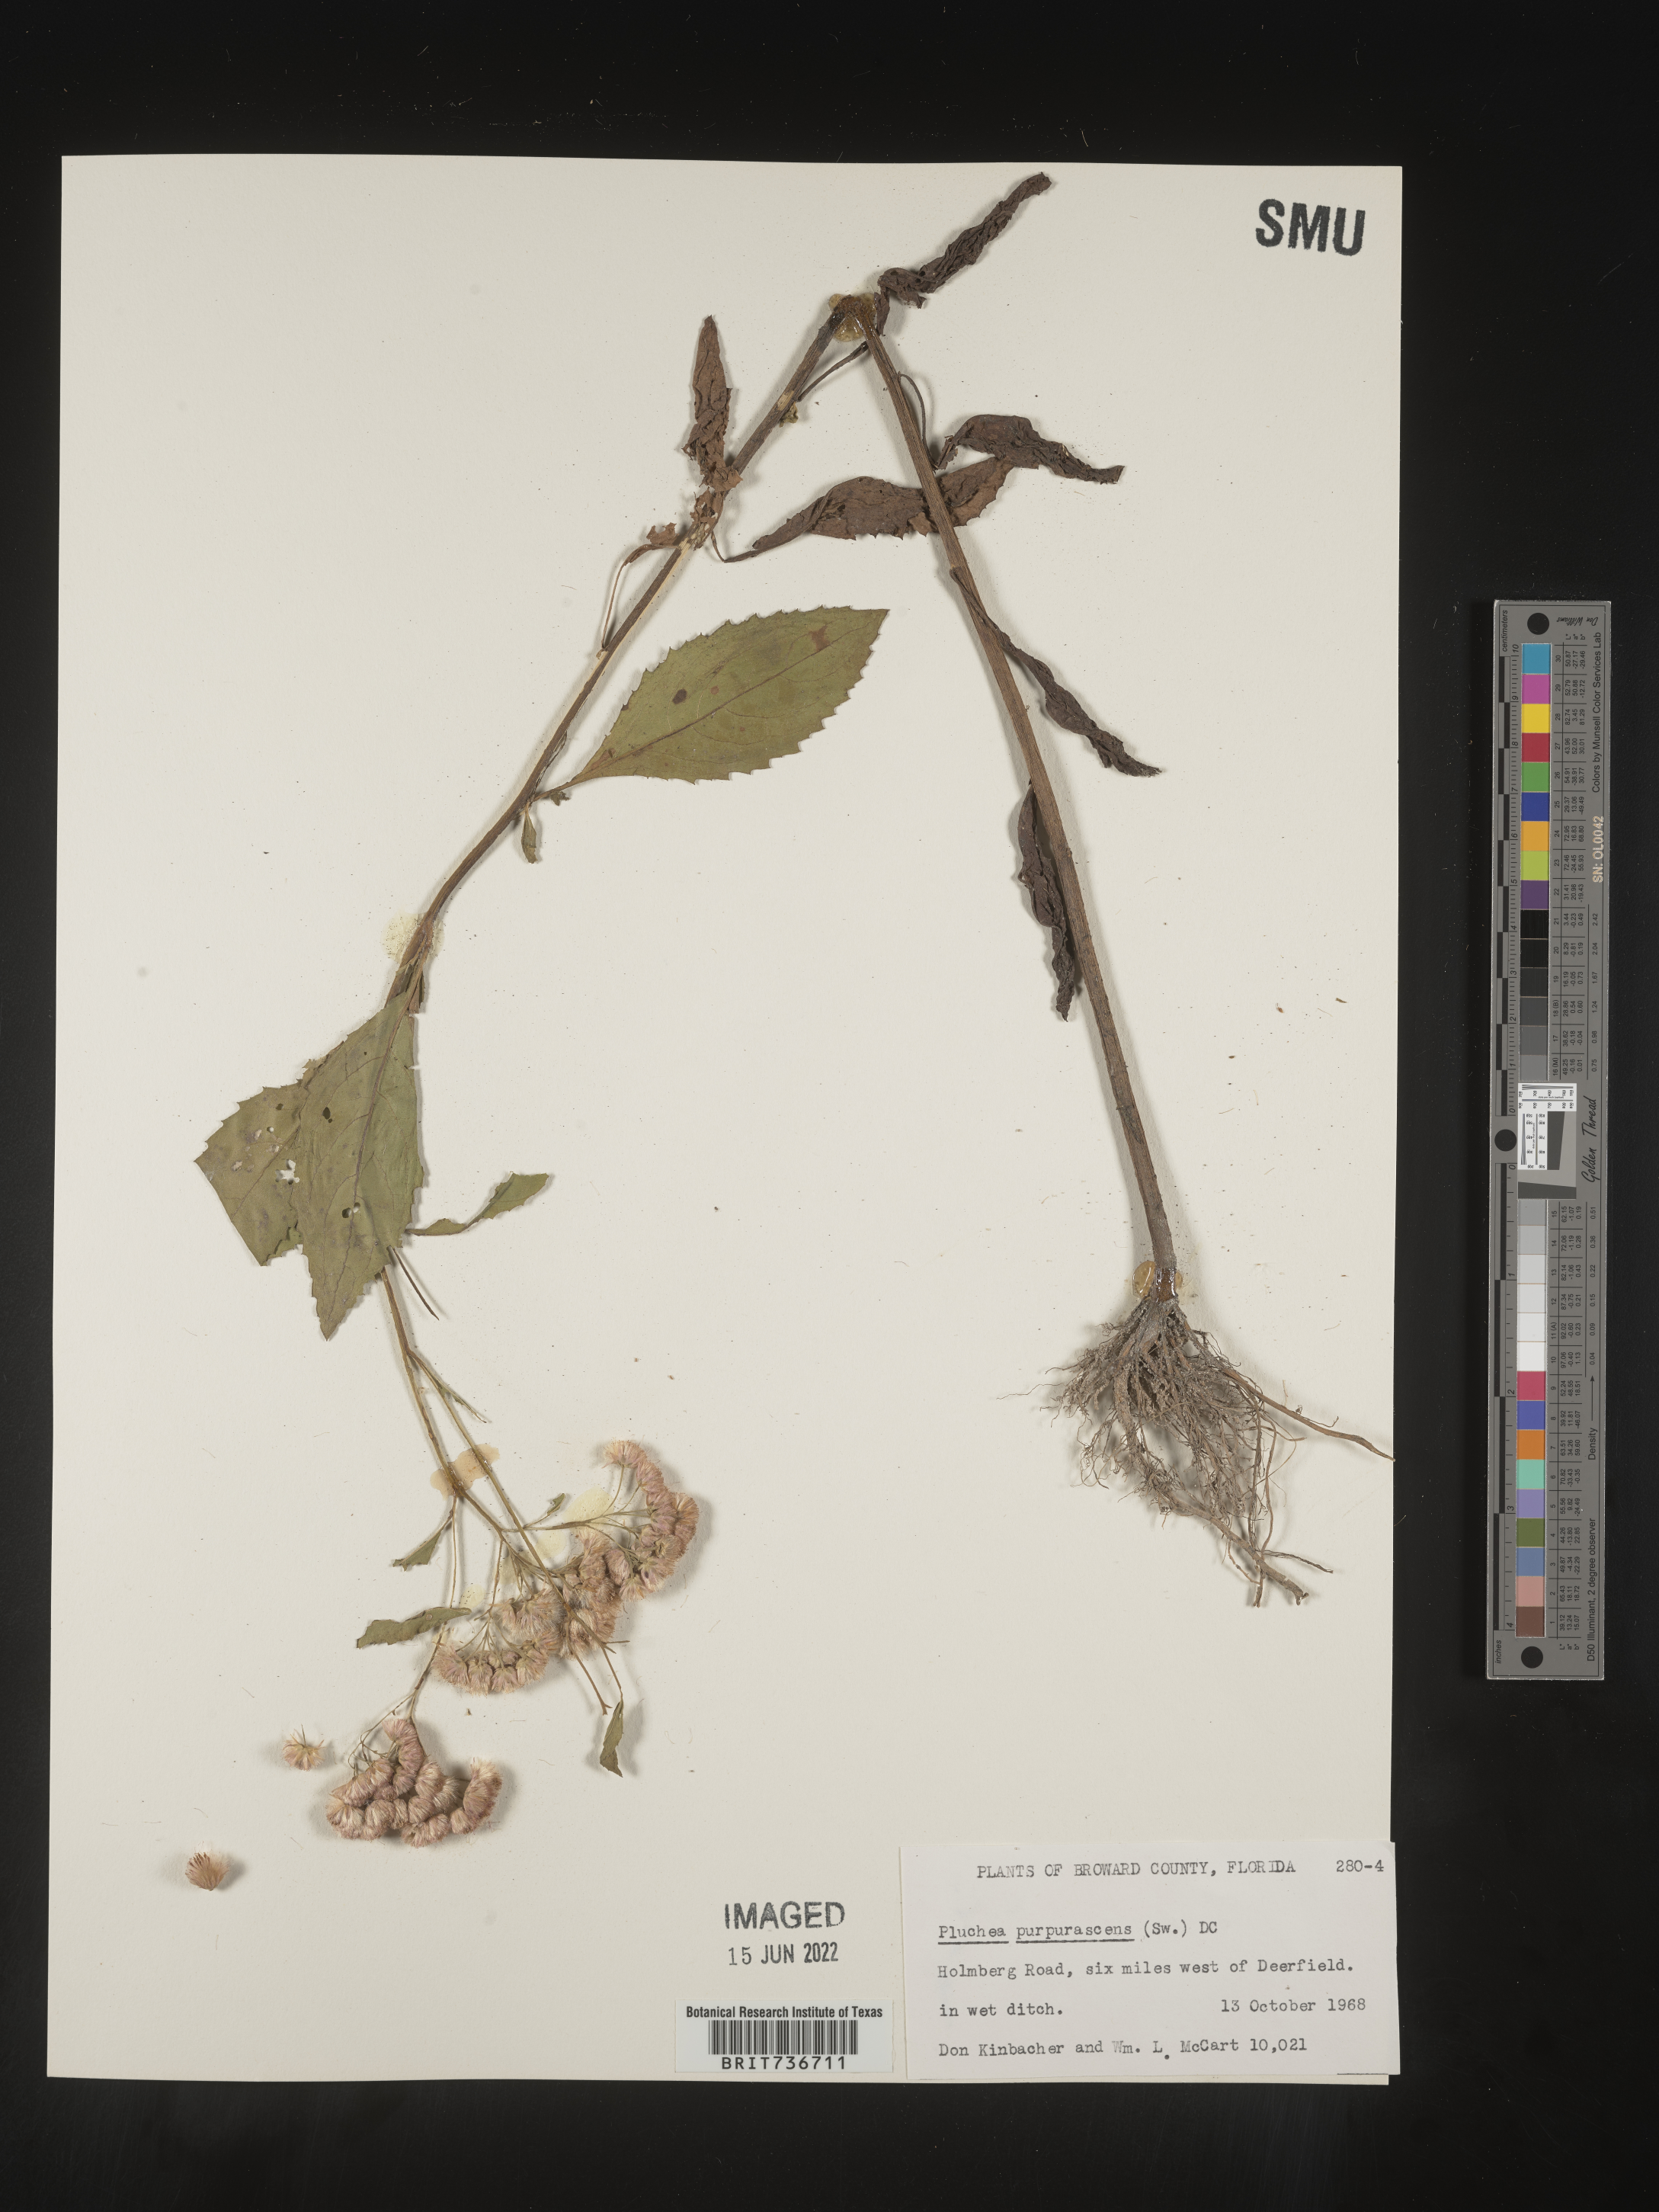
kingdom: Plantae
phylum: Tracheophyta
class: Magnoliopsida
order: Asterales
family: Asteraceae
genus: Pluchea
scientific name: Pluchea odorata
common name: Saltmarsh fleabane
